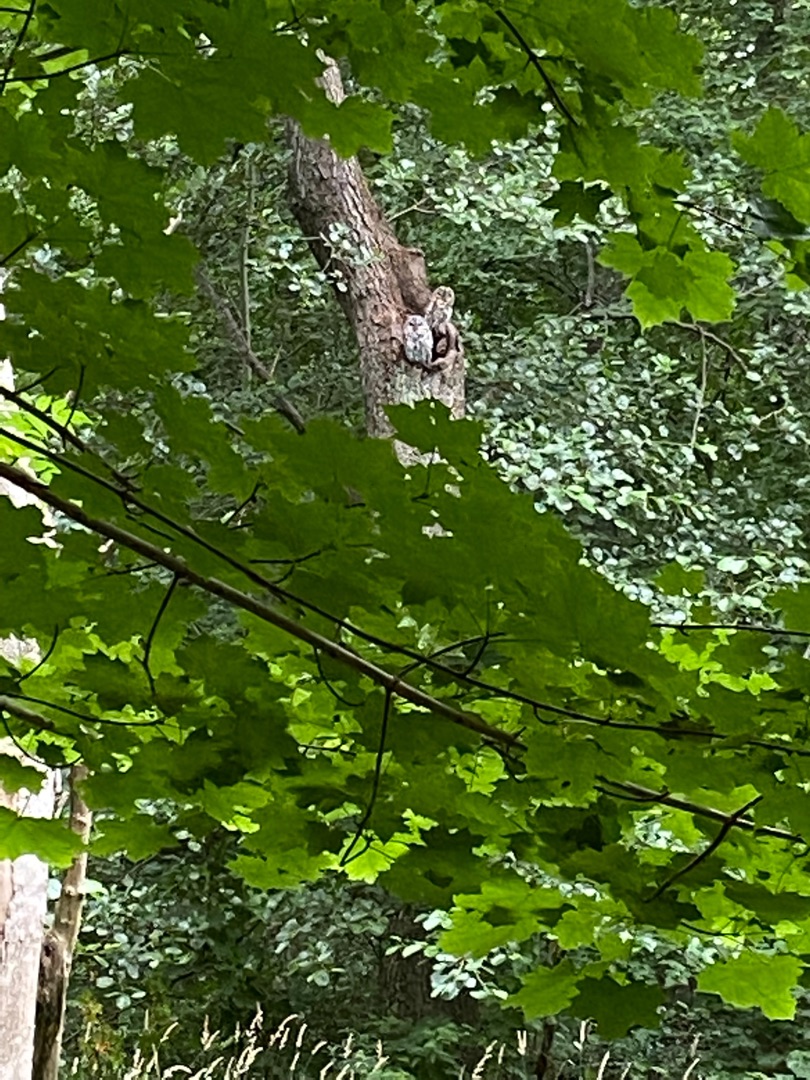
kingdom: Animalia
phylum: Chordata
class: Aves
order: Strigiformes
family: Strigidae
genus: Strix
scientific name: Strix aluco
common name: Natugle
